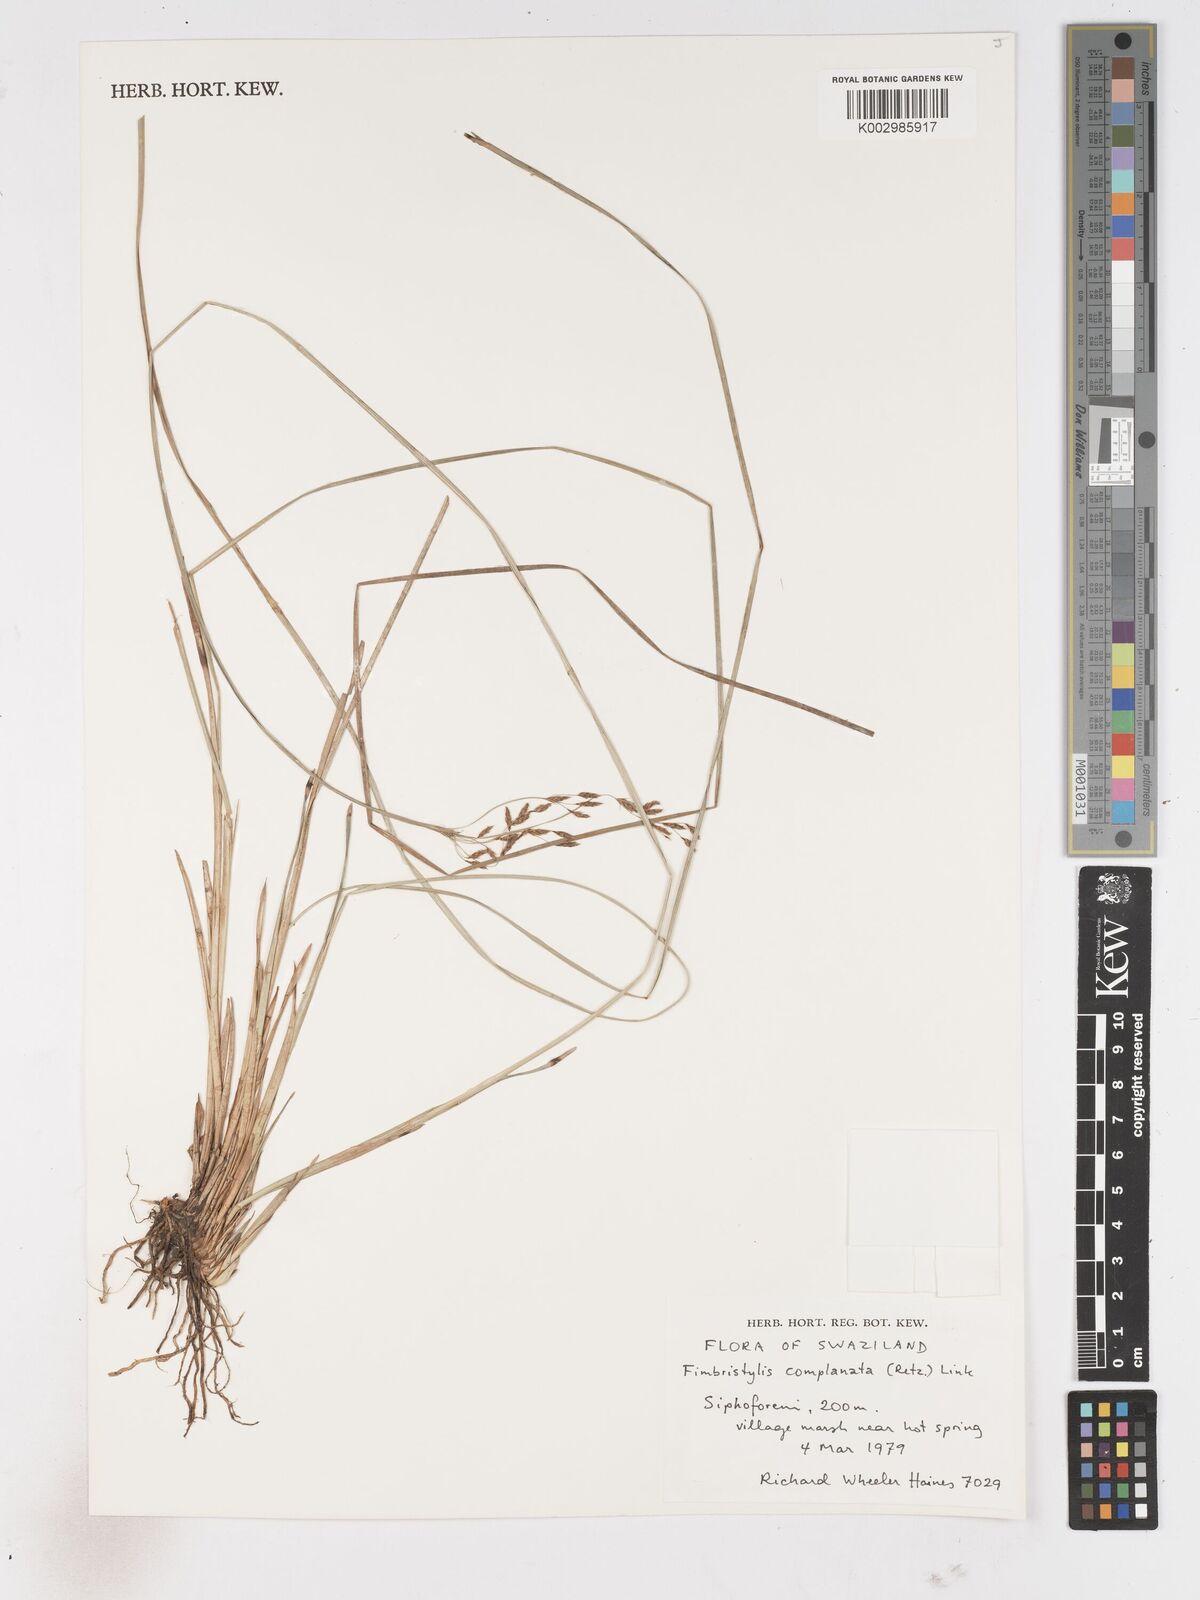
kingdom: Plantae
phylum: Tracheophyta
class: Liliopsida
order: Poales
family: Cyperaceae
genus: Fimbristylis
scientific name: Fimbristylis complanata
